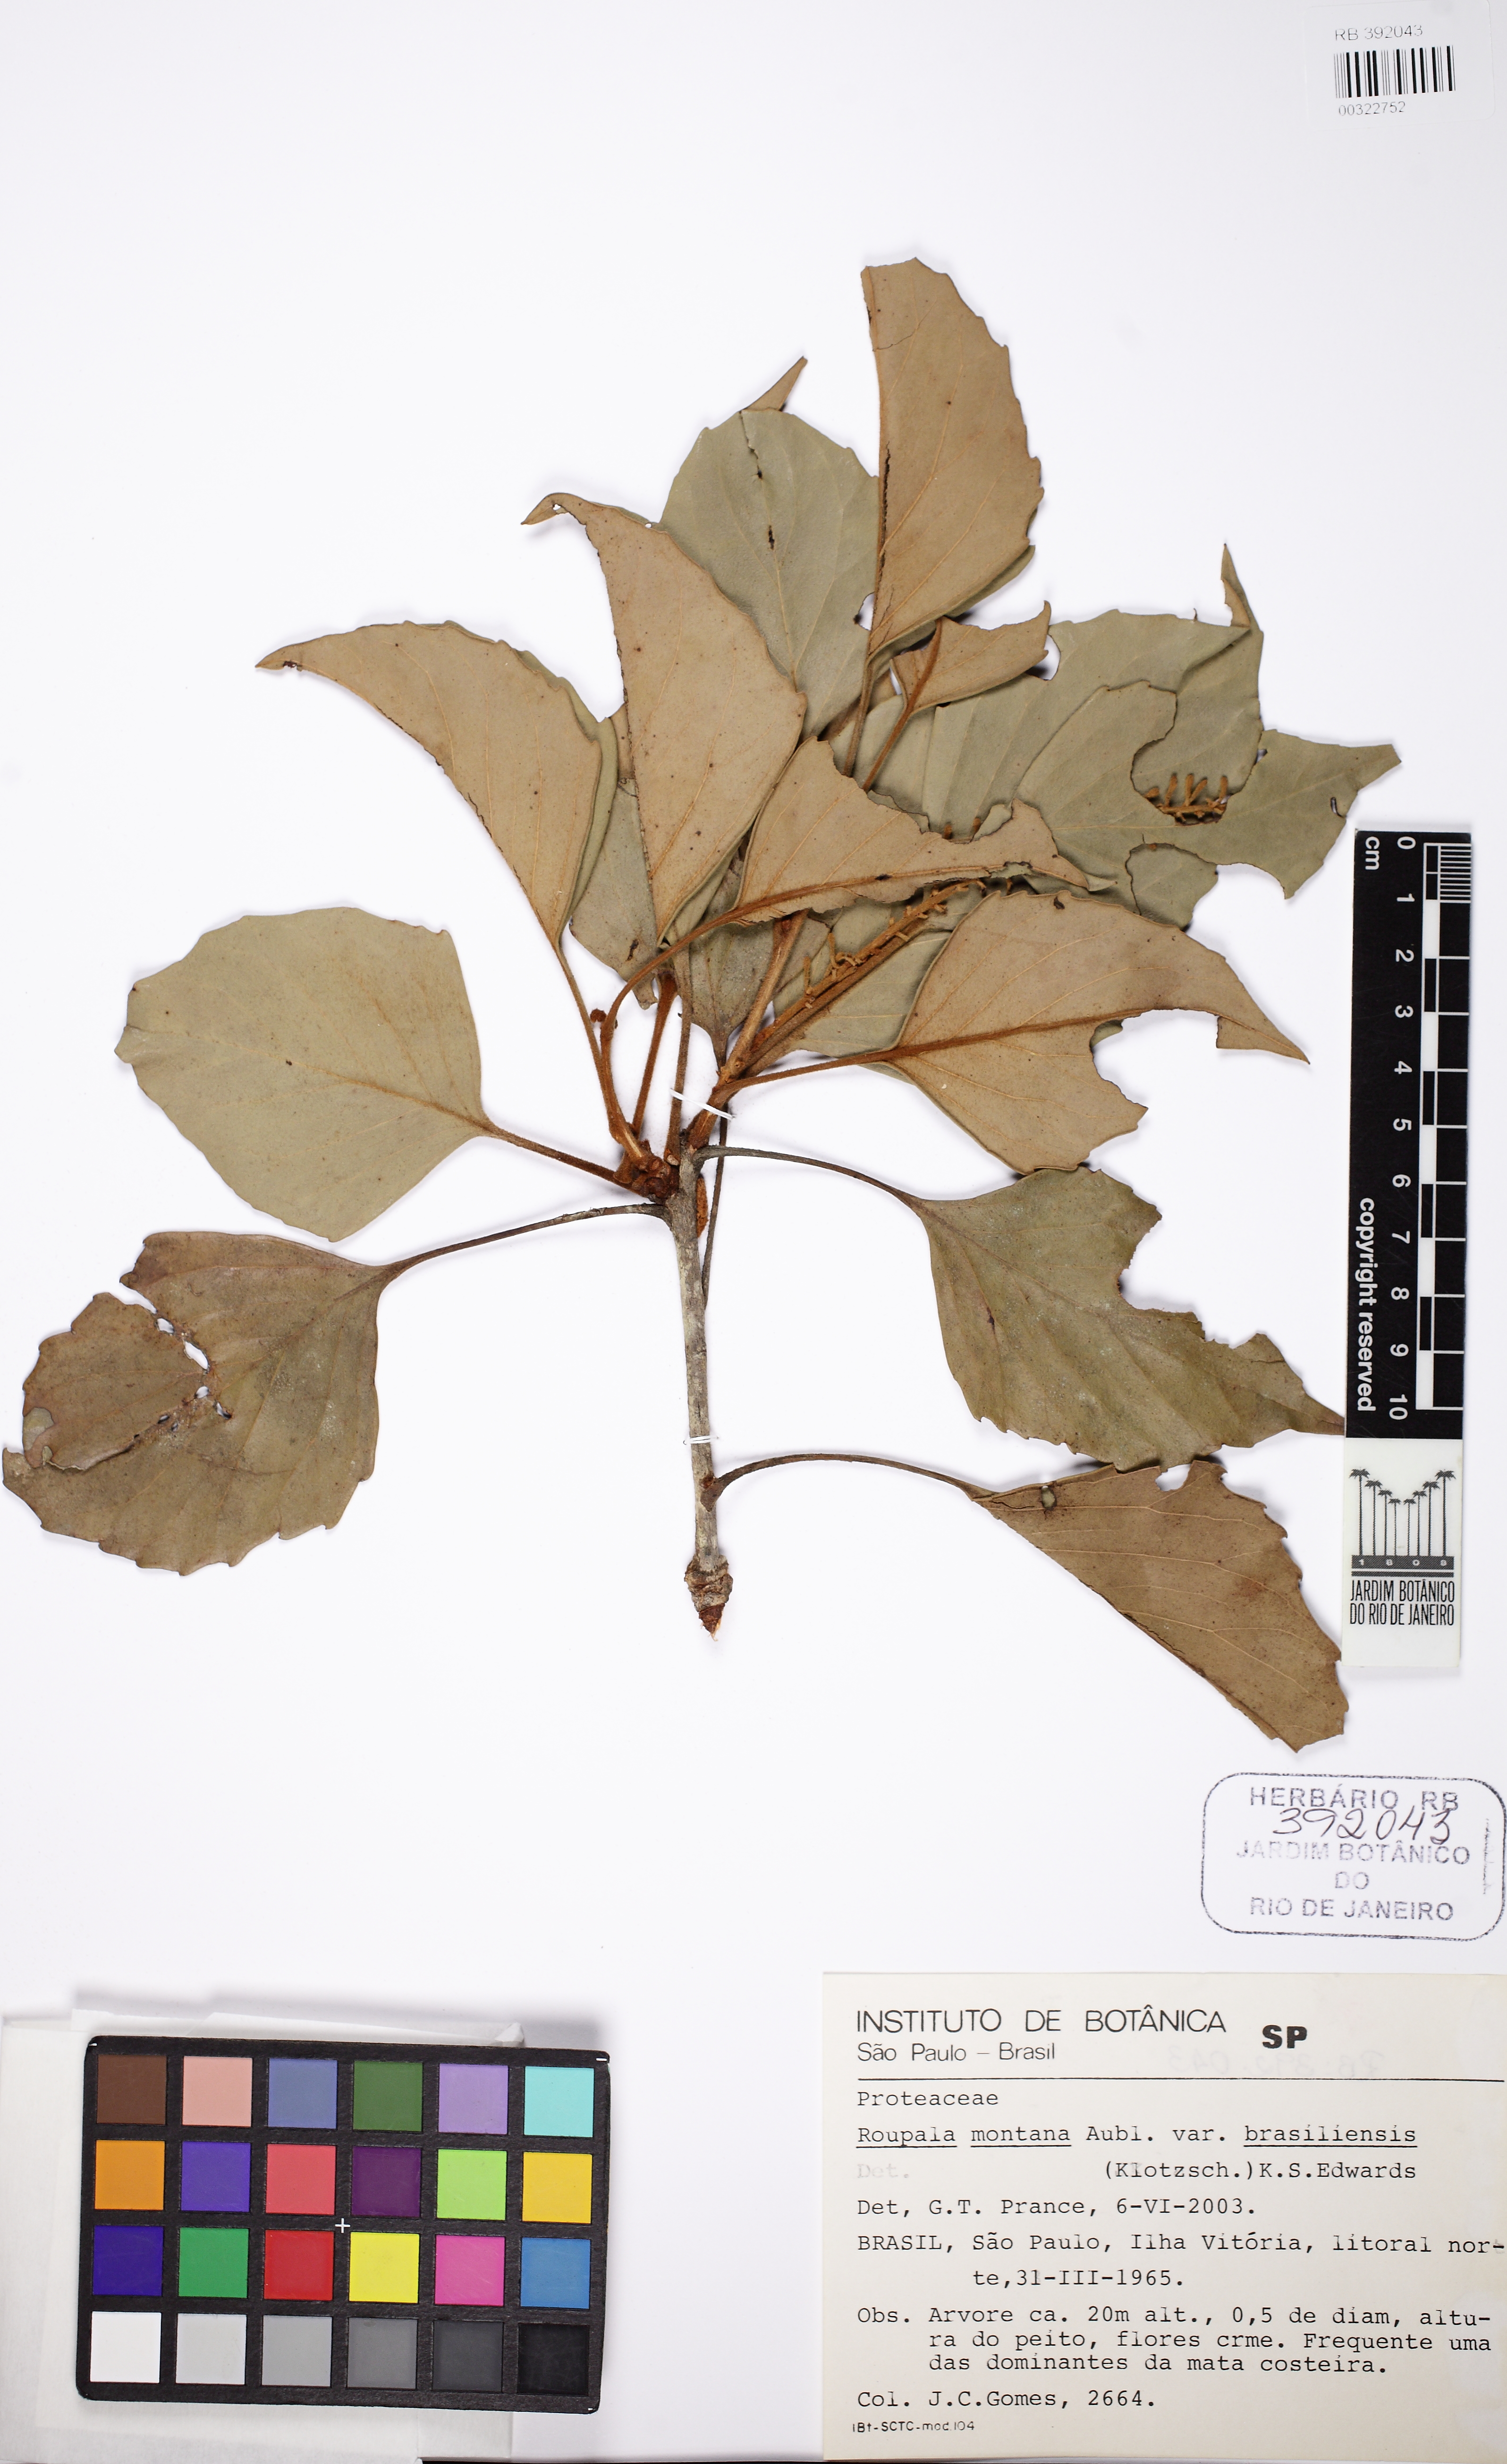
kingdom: Plantae
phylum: Tracheophyta
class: Magnoliopsida
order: Proteales
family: Proteaceae
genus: Roupala
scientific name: Roupala montana
